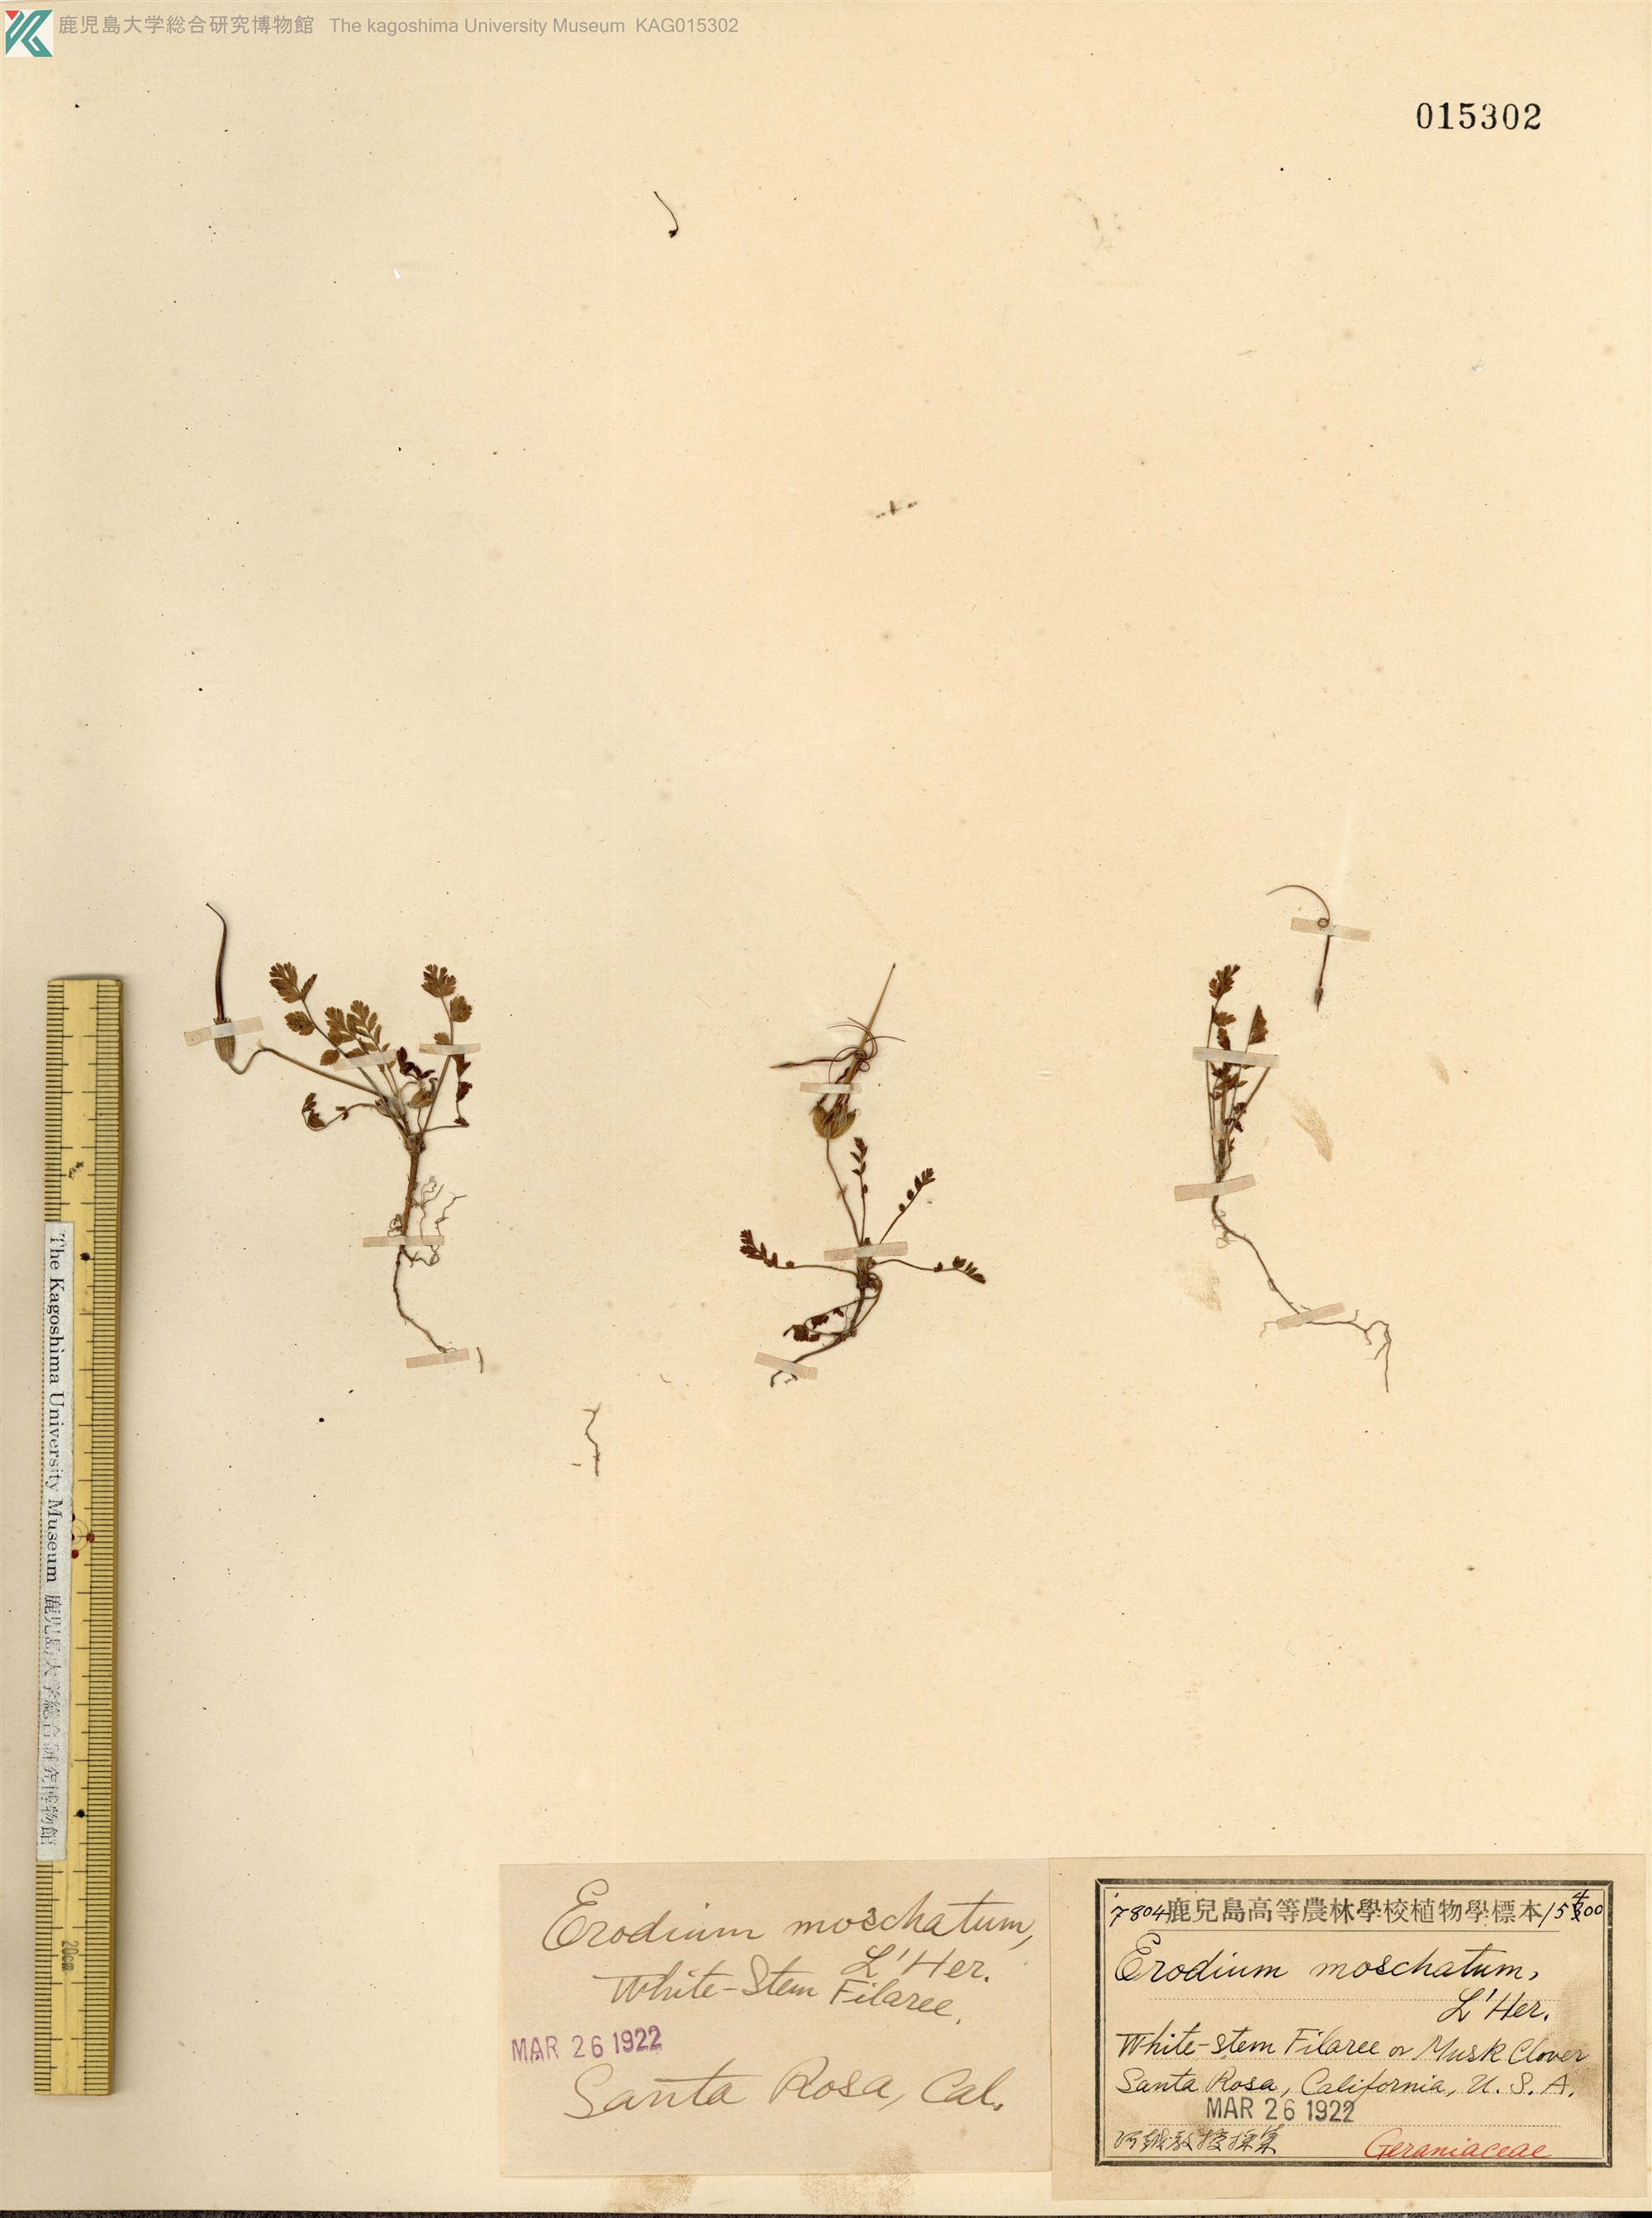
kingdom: Plantae
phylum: Tracheophyta
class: Magnoliopsida
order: Geraniales
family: Geraniaceae
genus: Erodium
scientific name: Erodium cicutarium
